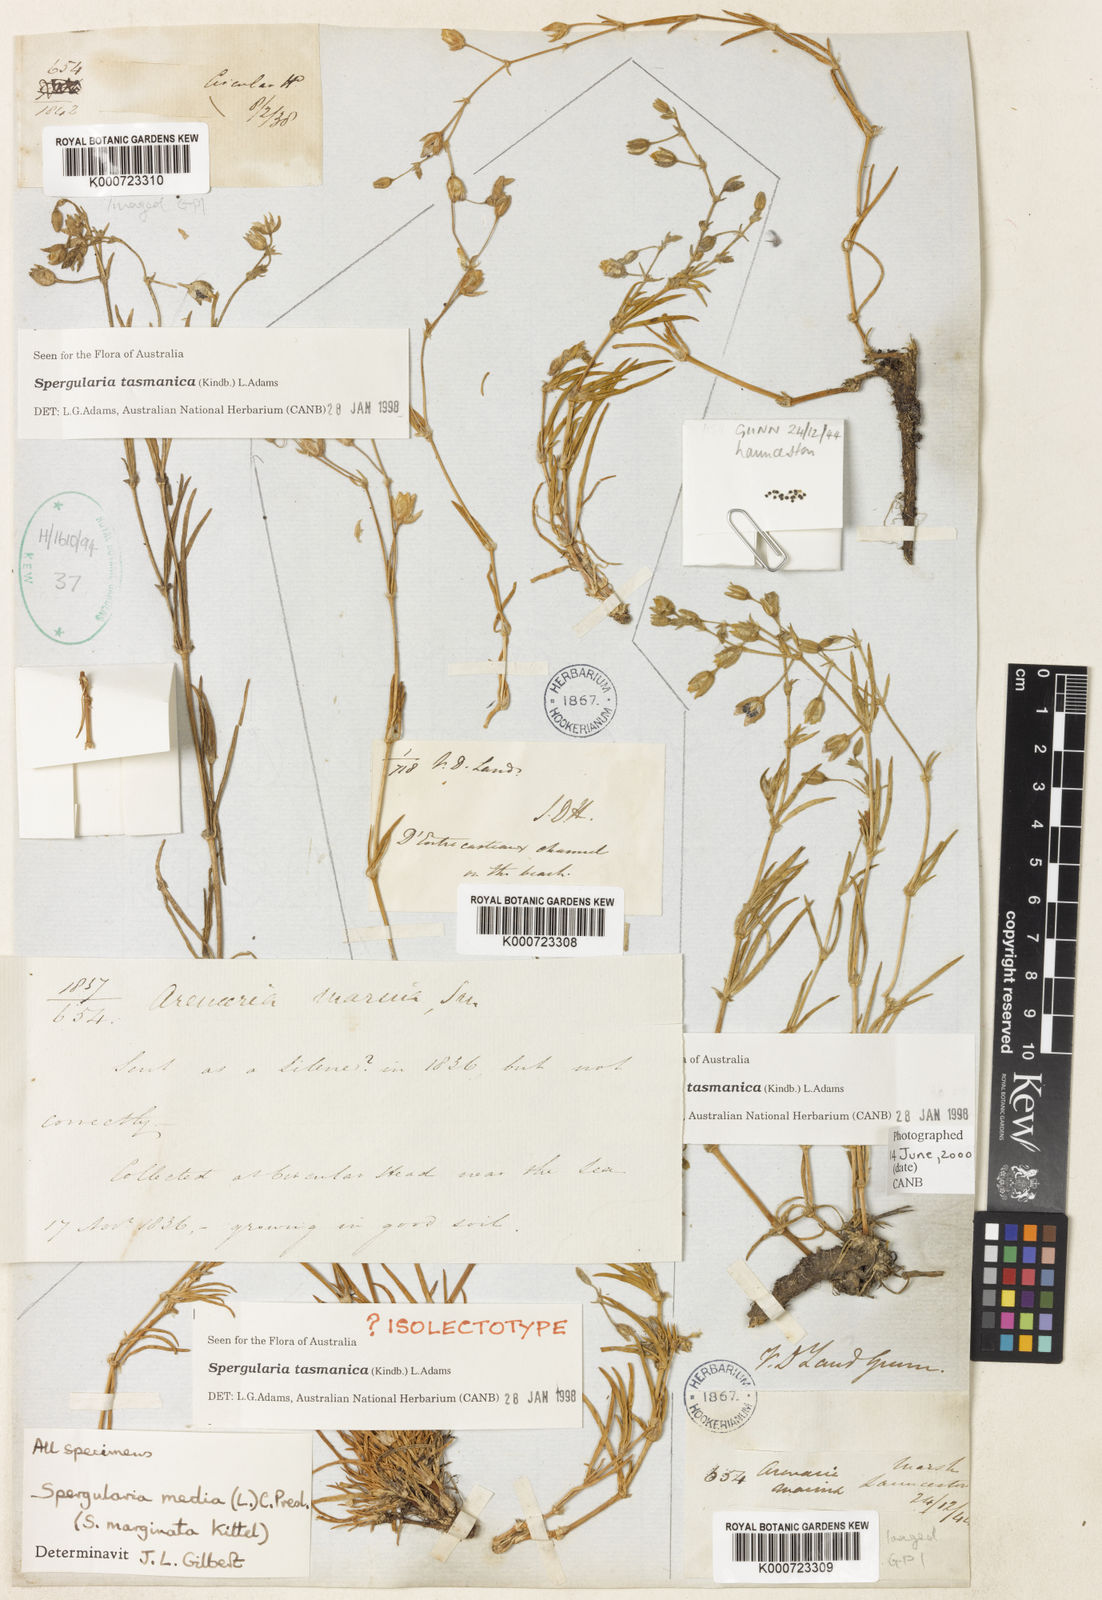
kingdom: Plantae
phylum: Tracheophyta
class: Magnoliopsida
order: Caryophyllales
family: Caryophyllaceae
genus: Spergularia
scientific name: Spergularia media
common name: Greater sea-spurrey
